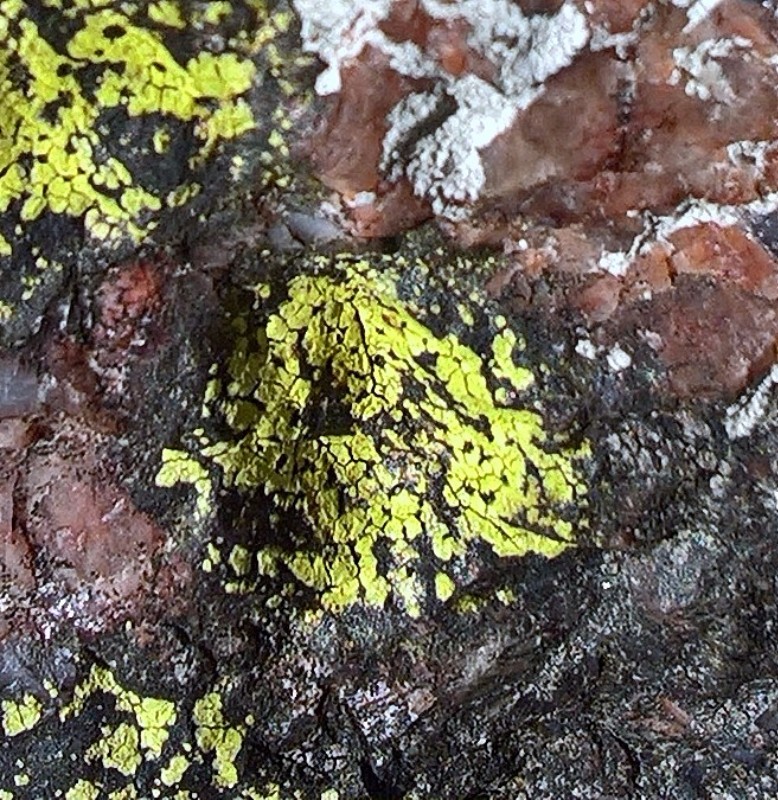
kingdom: Fungi
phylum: Ascomycota
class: Lecanoromycetes
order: Rhizocarpales
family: Rhizocarpaceae
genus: Rhizocarpon
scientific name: Rhizocarpon geographicum
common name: gulgrøn landkortlav
